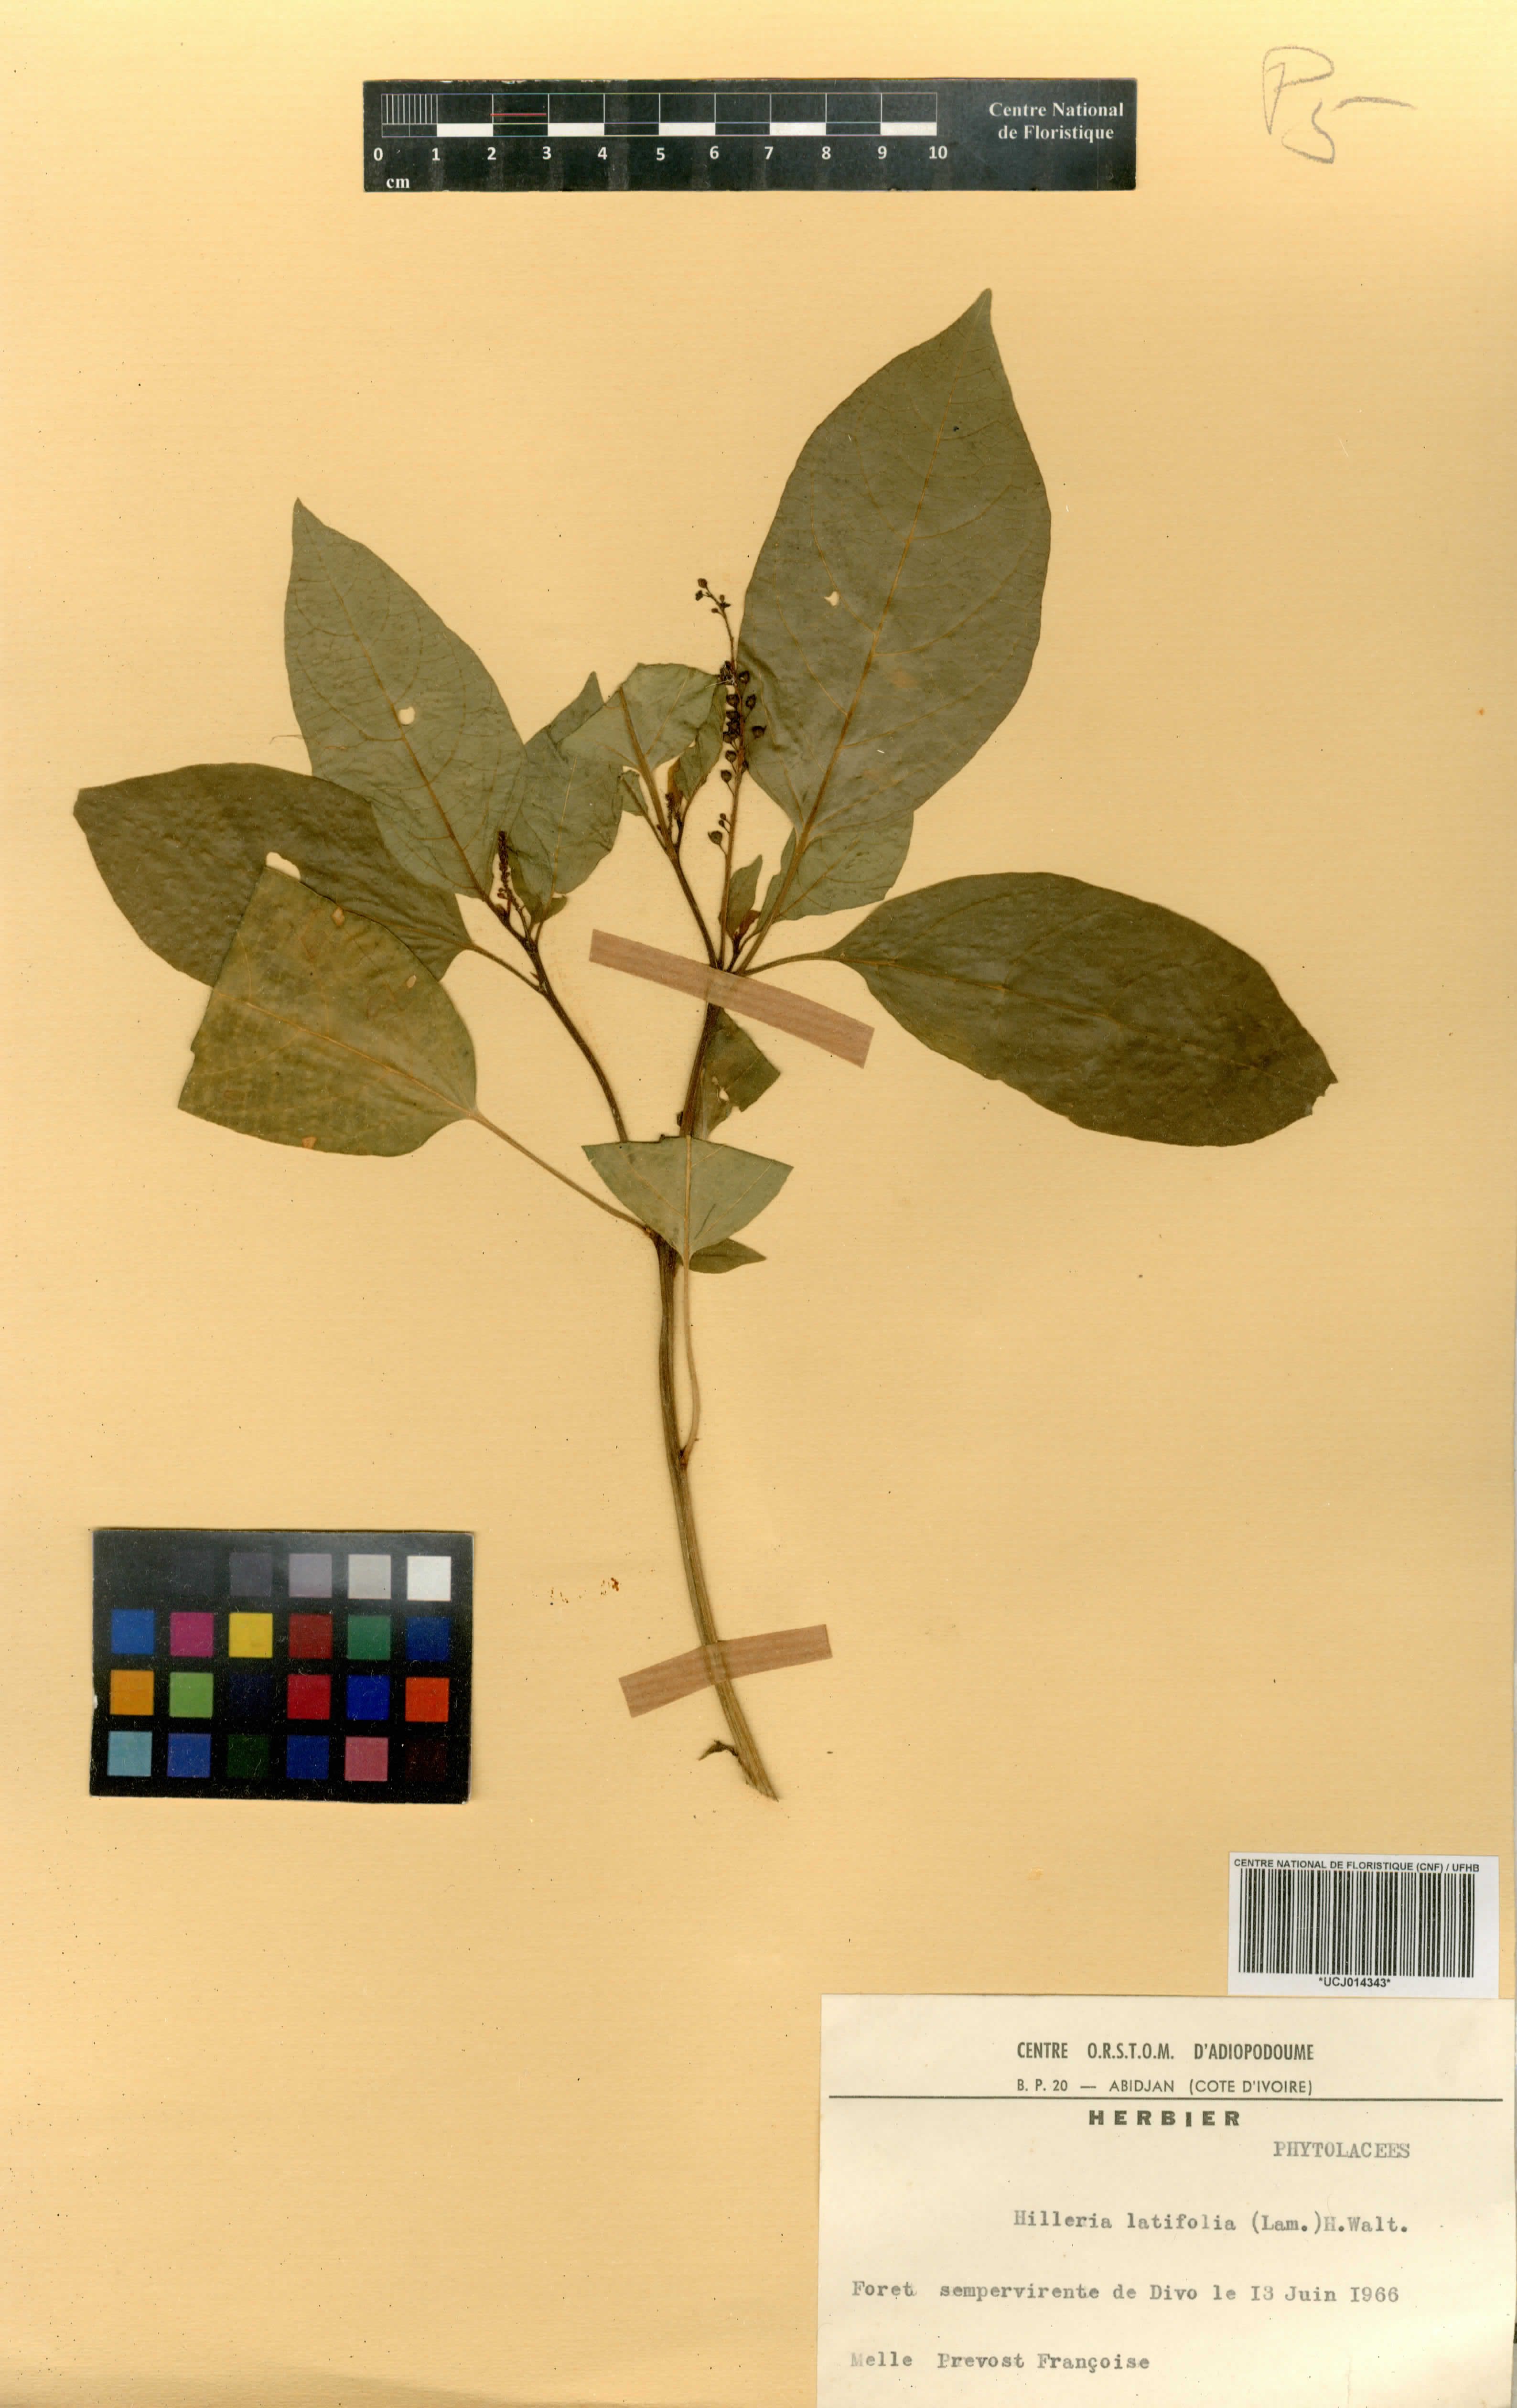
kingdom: Plantae
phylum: Tracheophyta
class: Magnoliopsida
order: Caryophyllales
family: Phytolaccaceae
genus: Hilleria
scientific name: Hilleria latifolia
